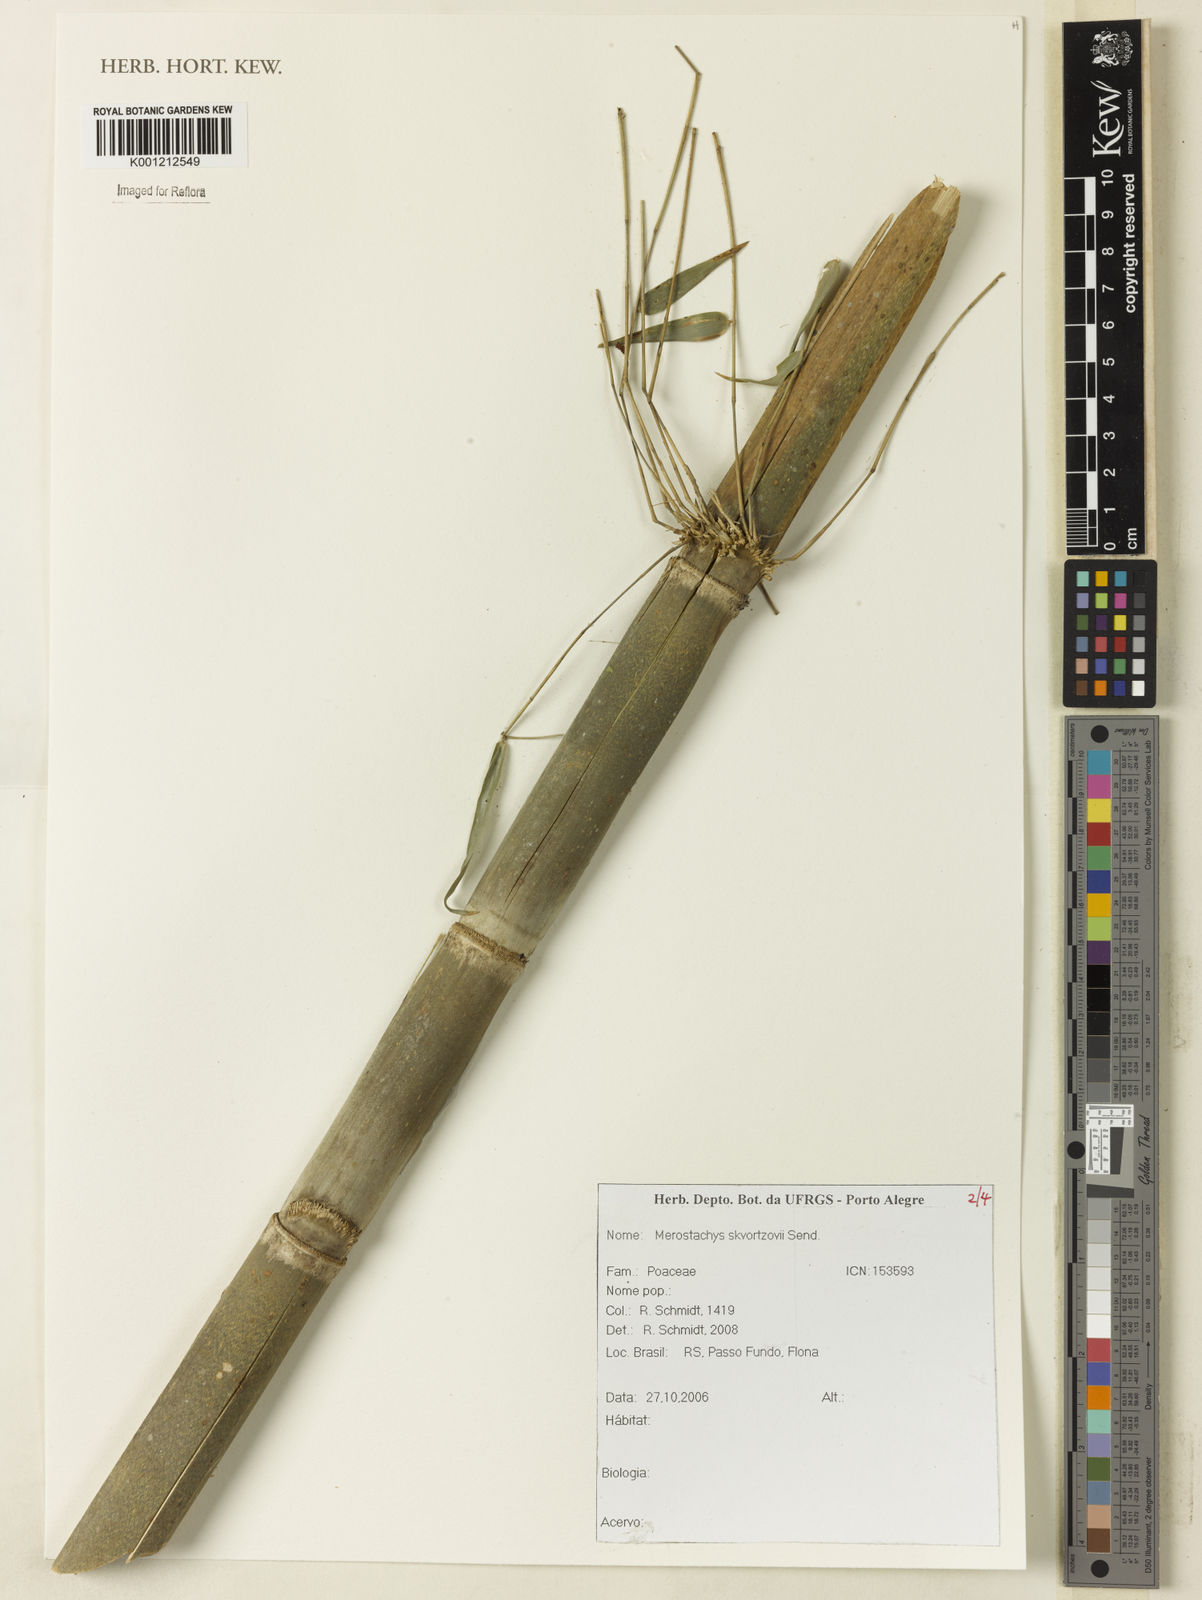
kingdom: Plantae
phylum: Tracheophyta
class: Liliopsida
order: Poales
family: Poaceae
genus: Merostachys
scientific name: Merostachys skvortzovii
